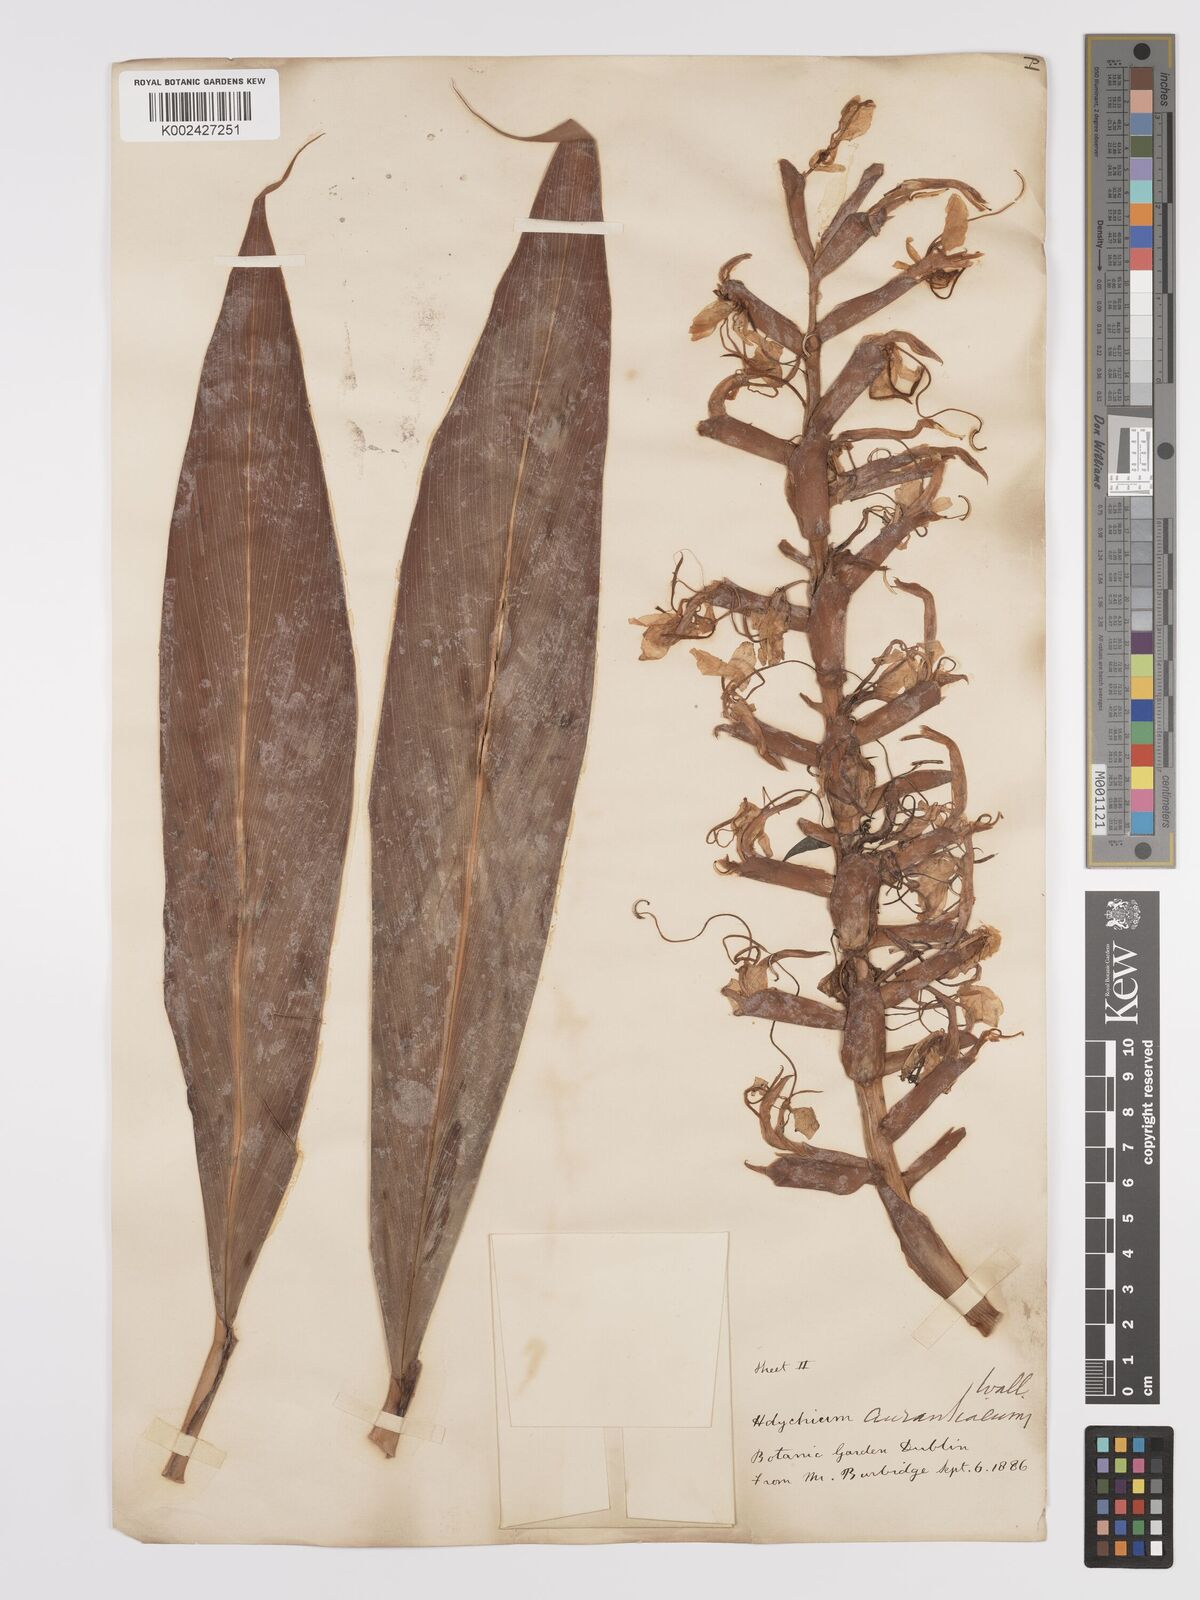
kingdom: Plantae
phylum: Tracheophyta
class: Liliopsida
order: Zingiberales
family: Zingiberaceae
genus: Hedychium
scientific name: Hedychium coccineum
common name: Red ginger-lily
